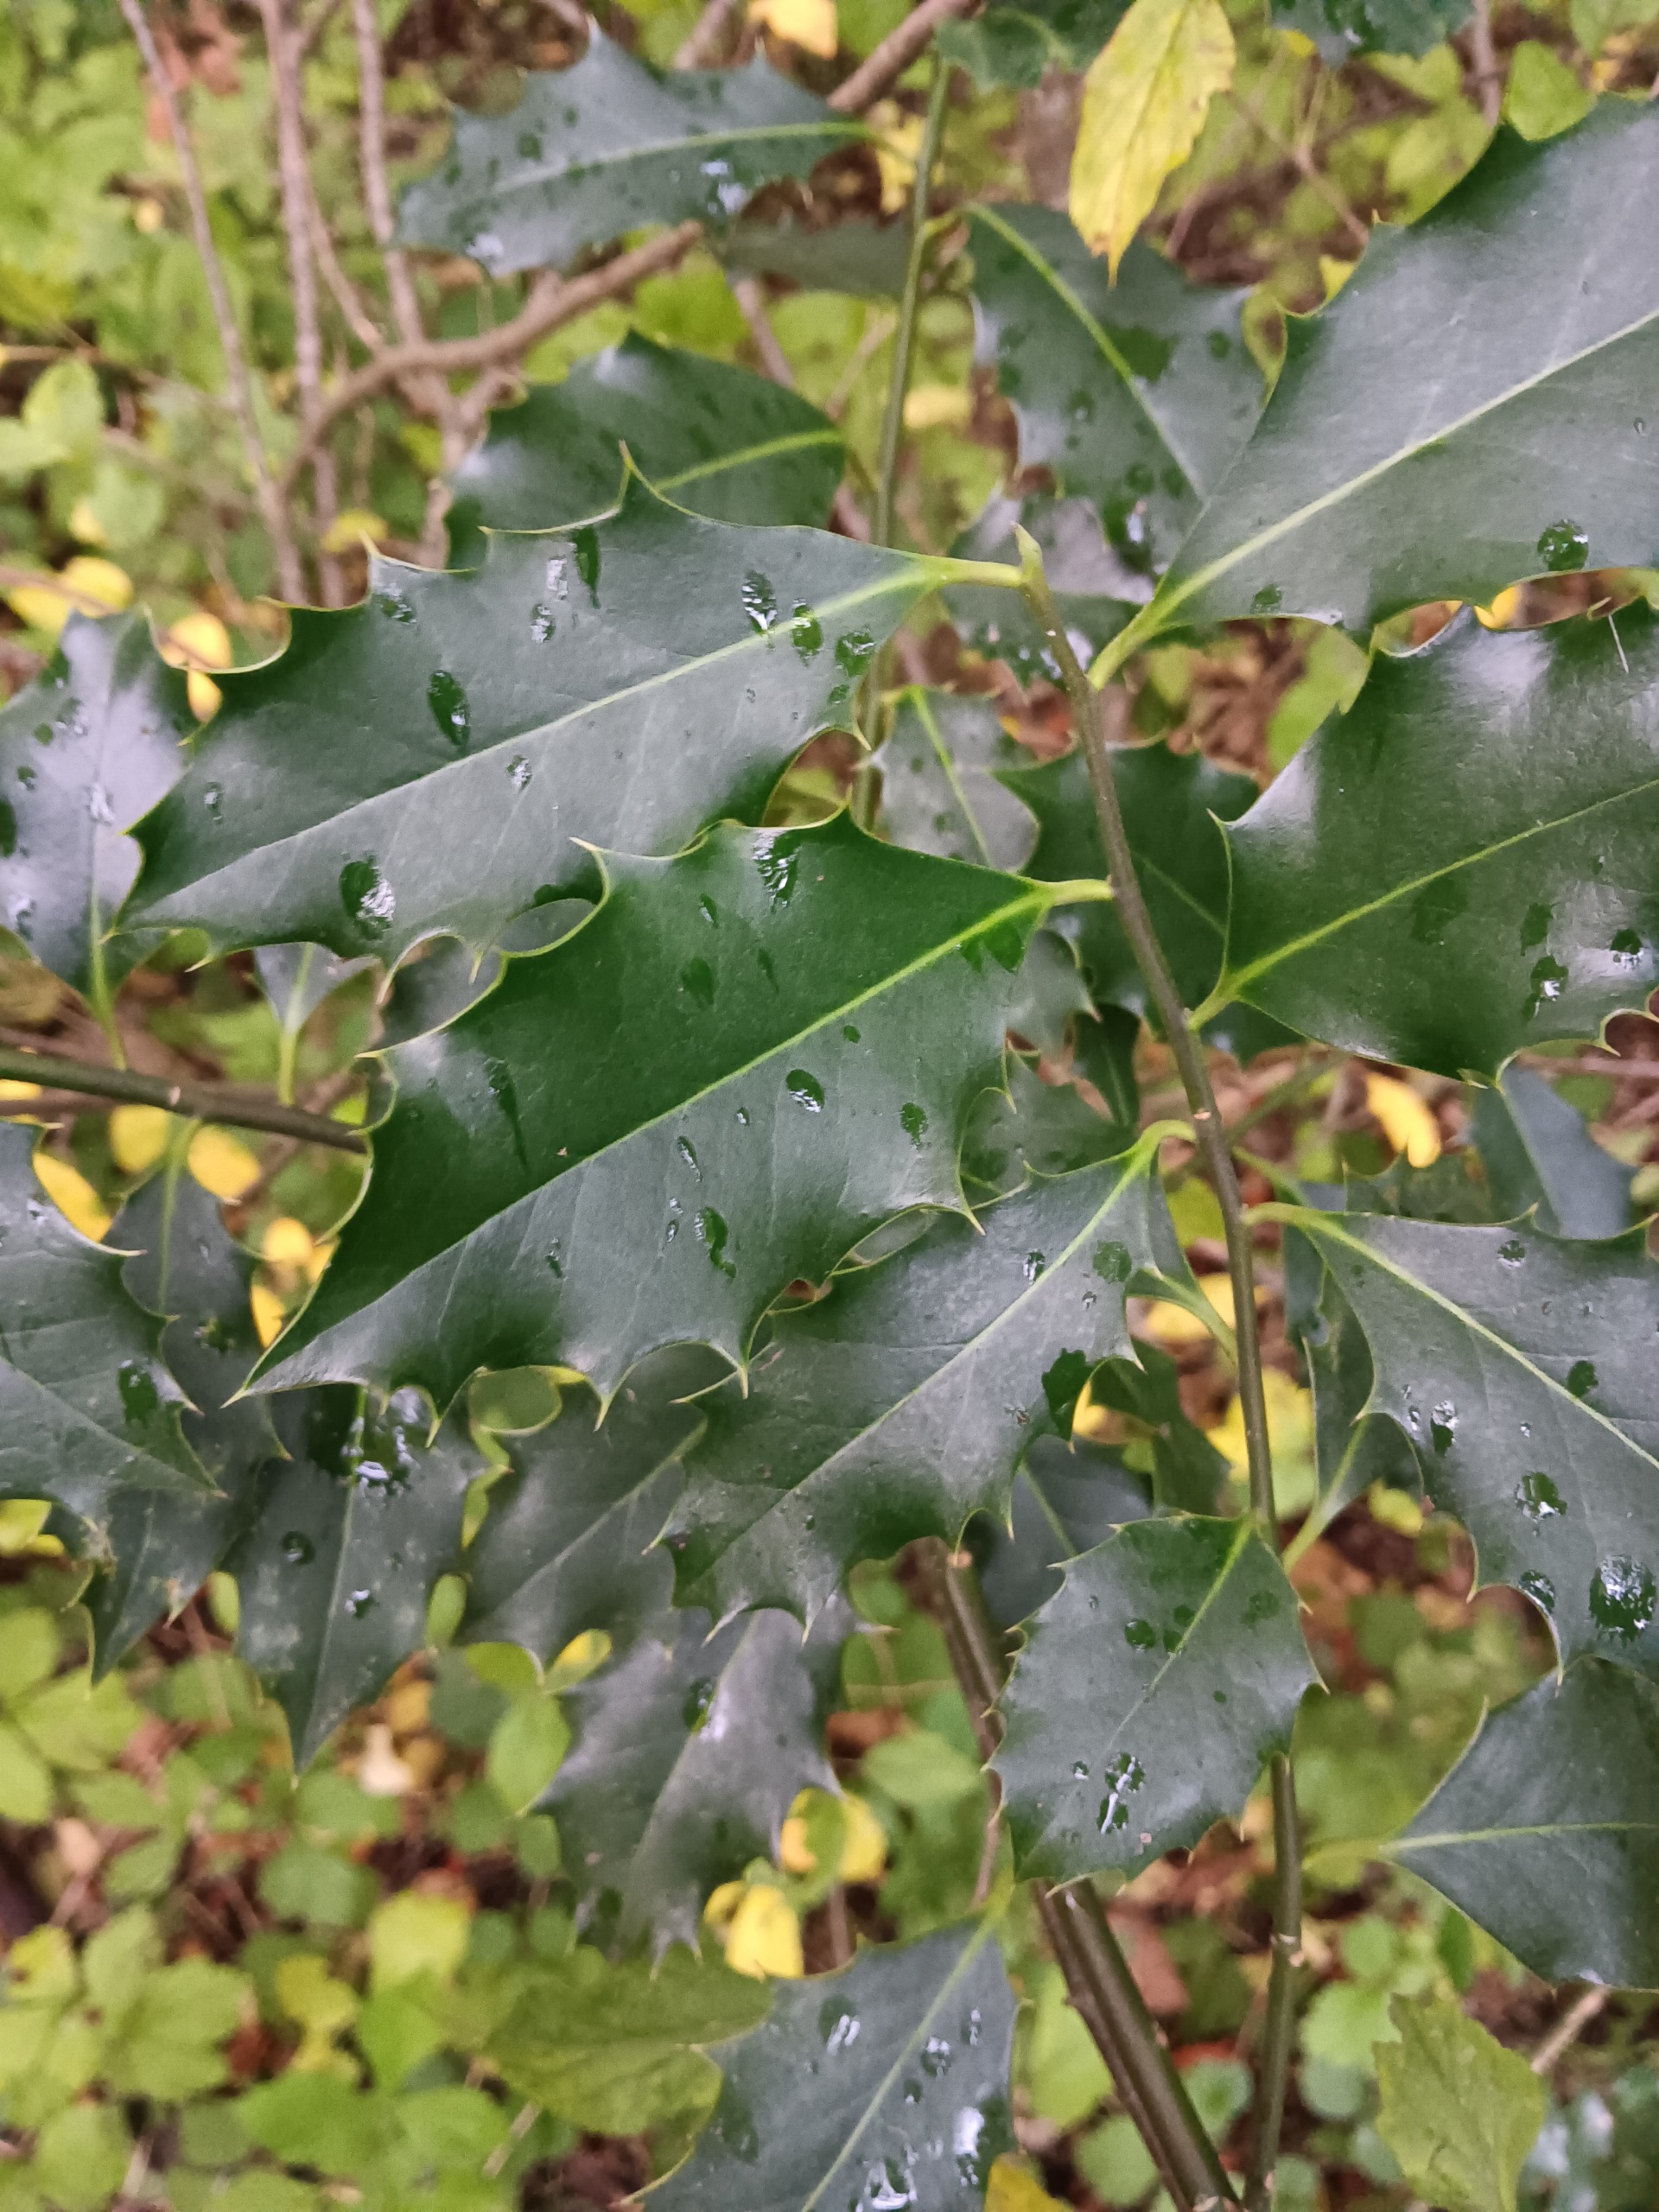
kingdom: Plantae
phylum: Tracheophyta
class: Magnoliopsida
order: Aquifoliales
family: Aquifoliaceae
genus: Ilex
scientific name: Ilex aquifolium
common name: Kristtorn
